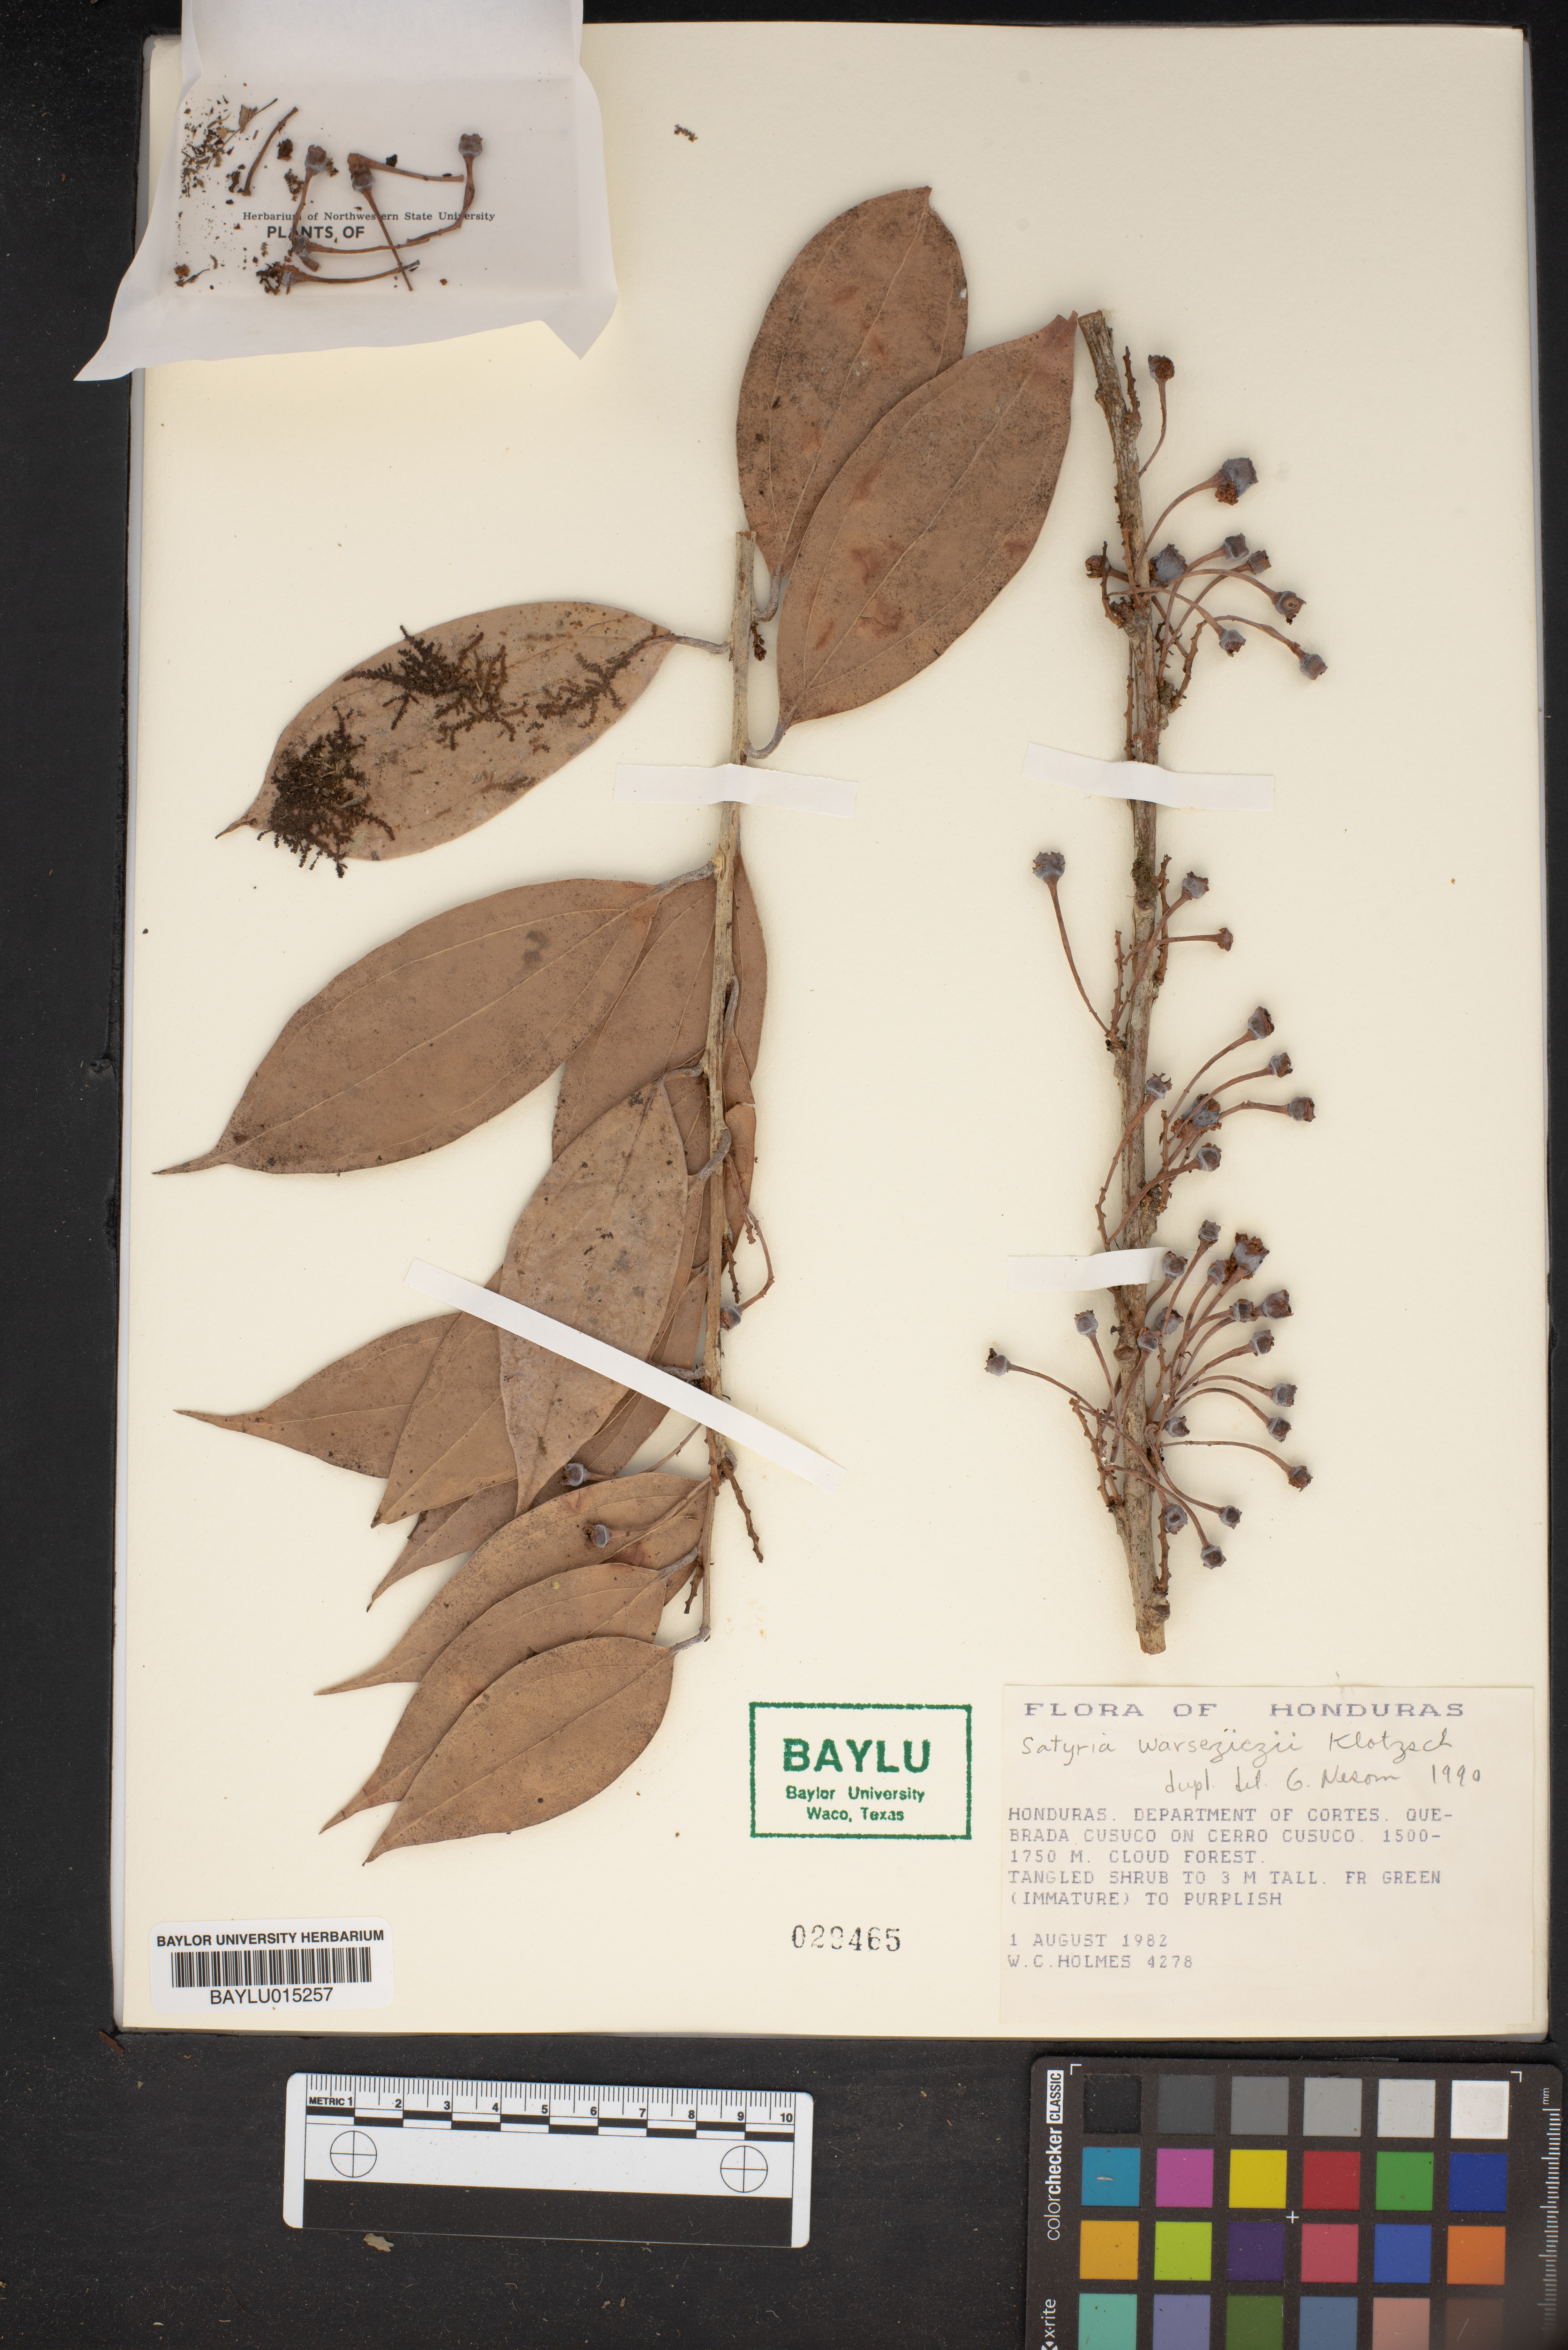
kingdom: Plantae
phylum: Tracheophyta
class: Magnoliopsida
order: Ericales
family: Ericaceae
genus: Satyria
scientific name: Satyria warszewiczii
